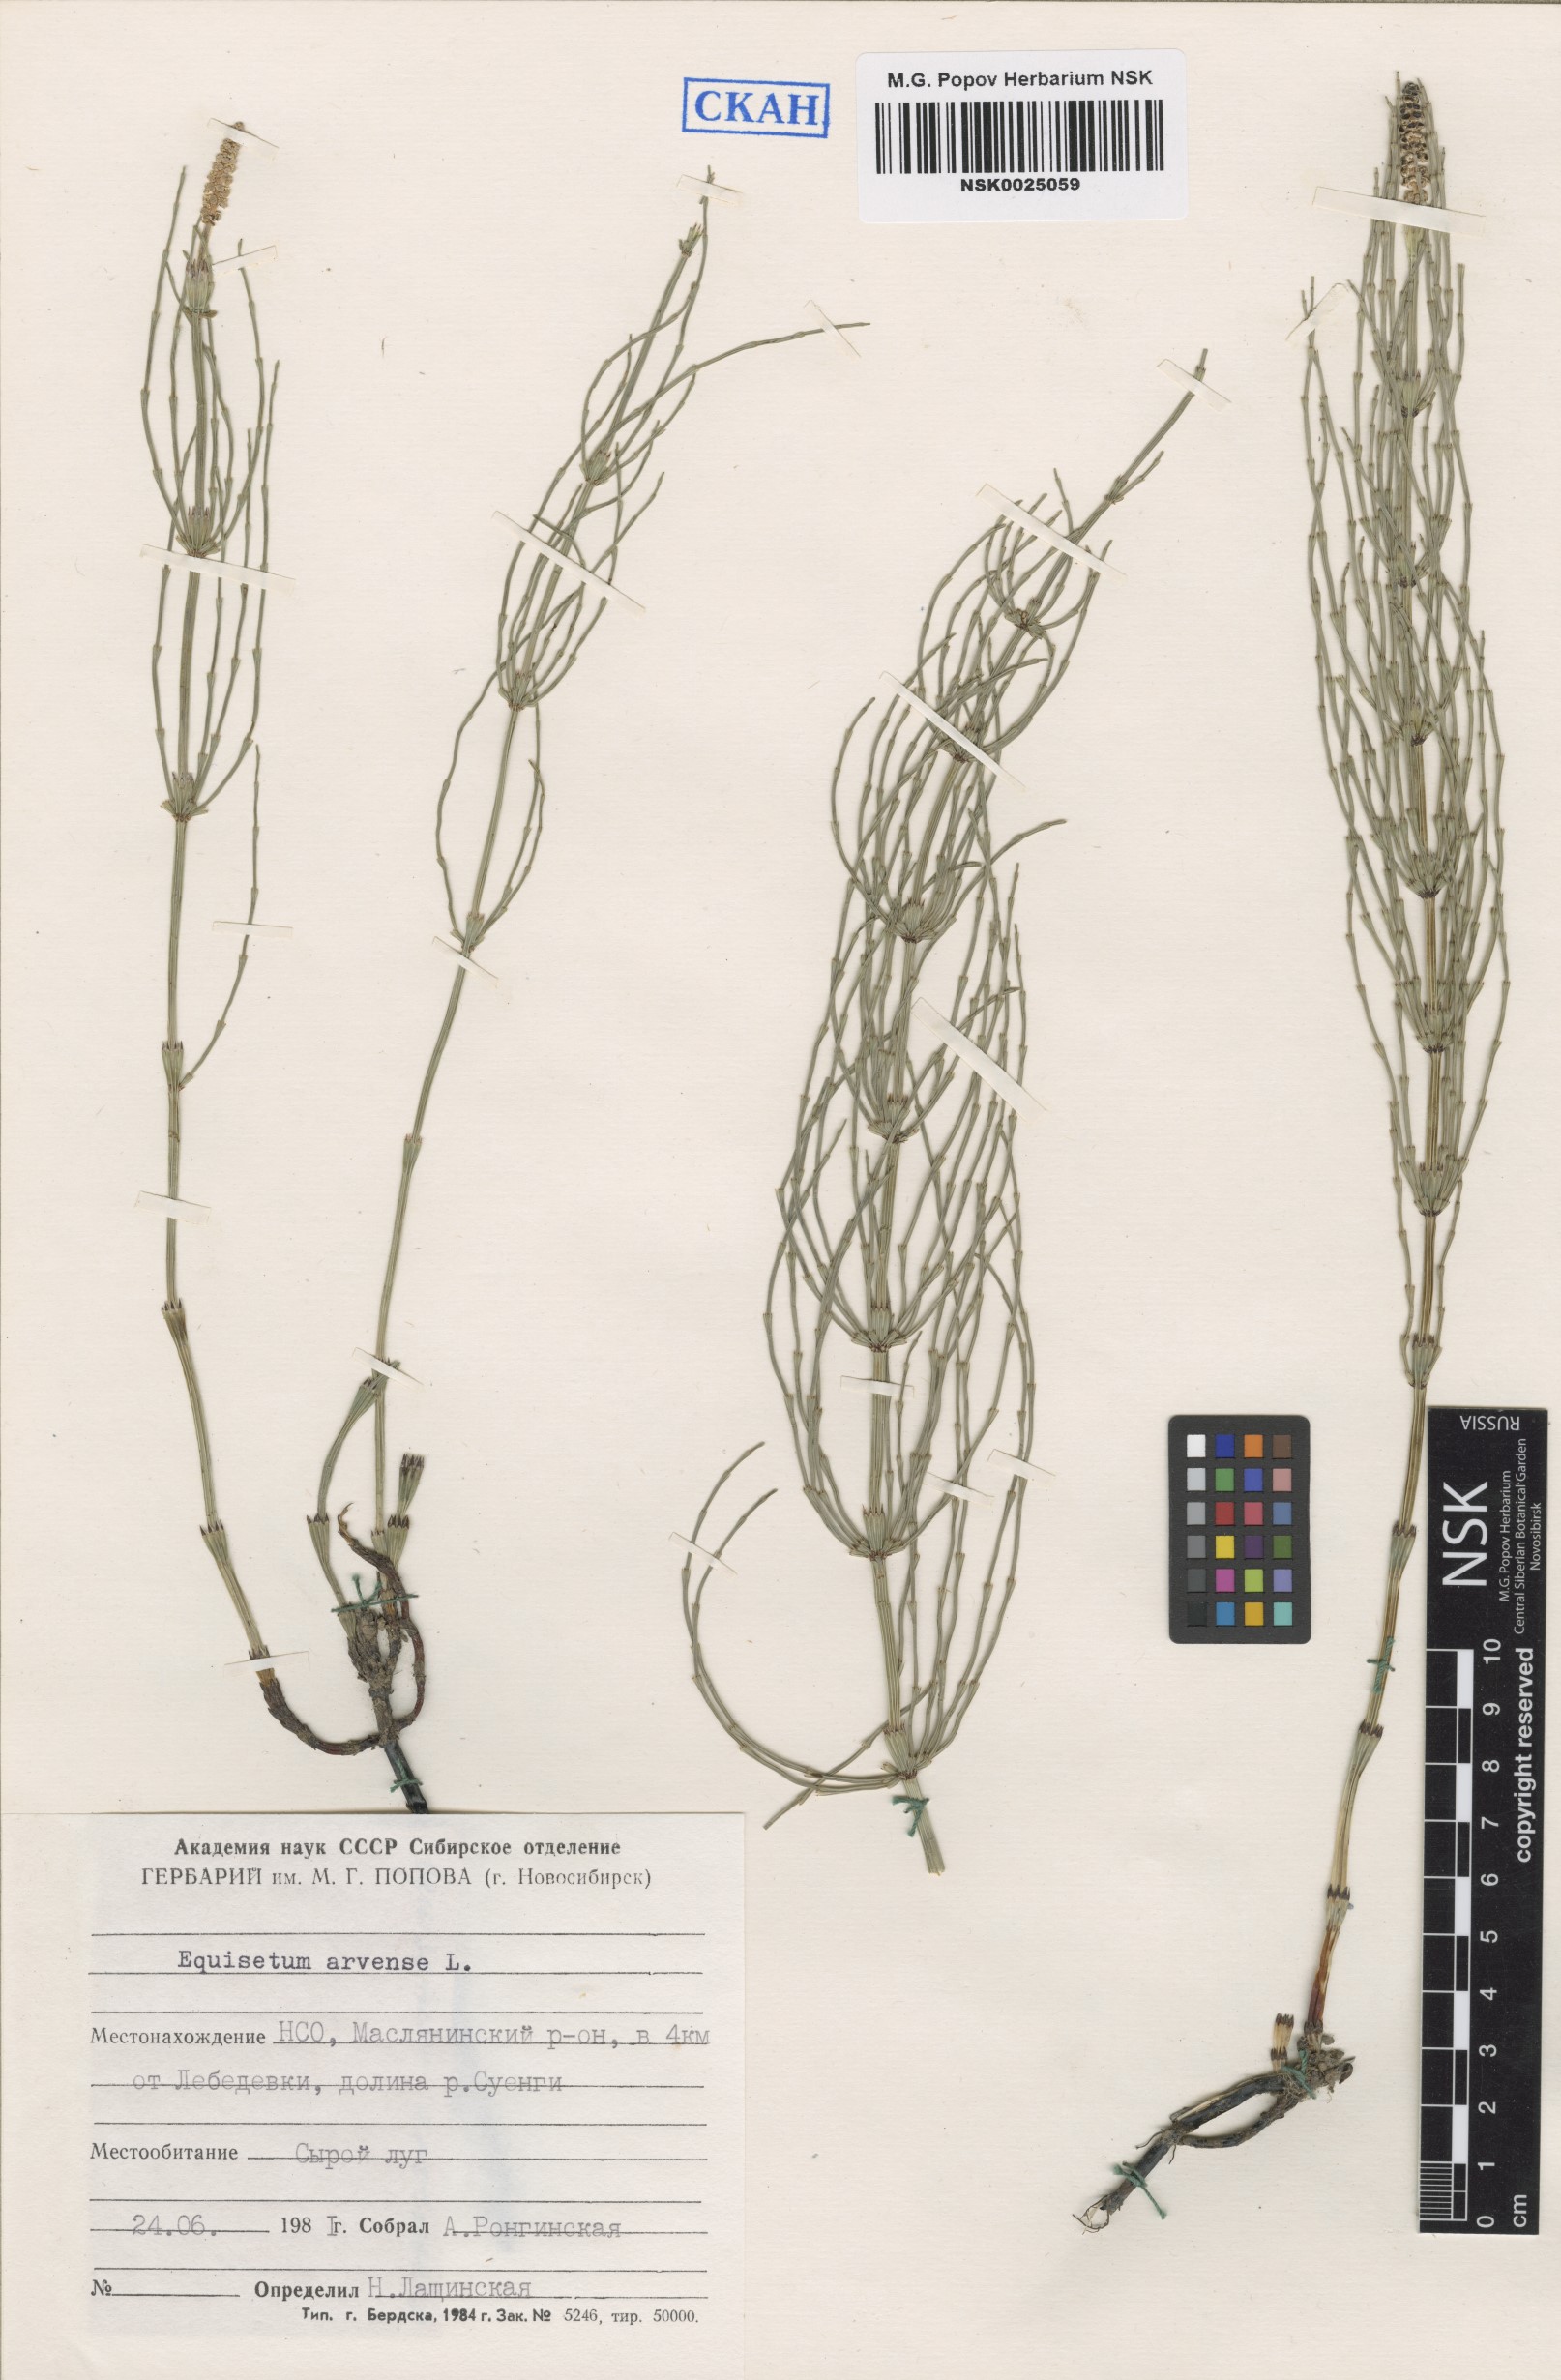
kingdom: Plantae
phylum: Tracheophyta
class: Polypodiopsida
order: Equisetales
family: Equisetaceae
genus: Equisetum
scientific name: Equisetum arvense
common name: Field horsetail
